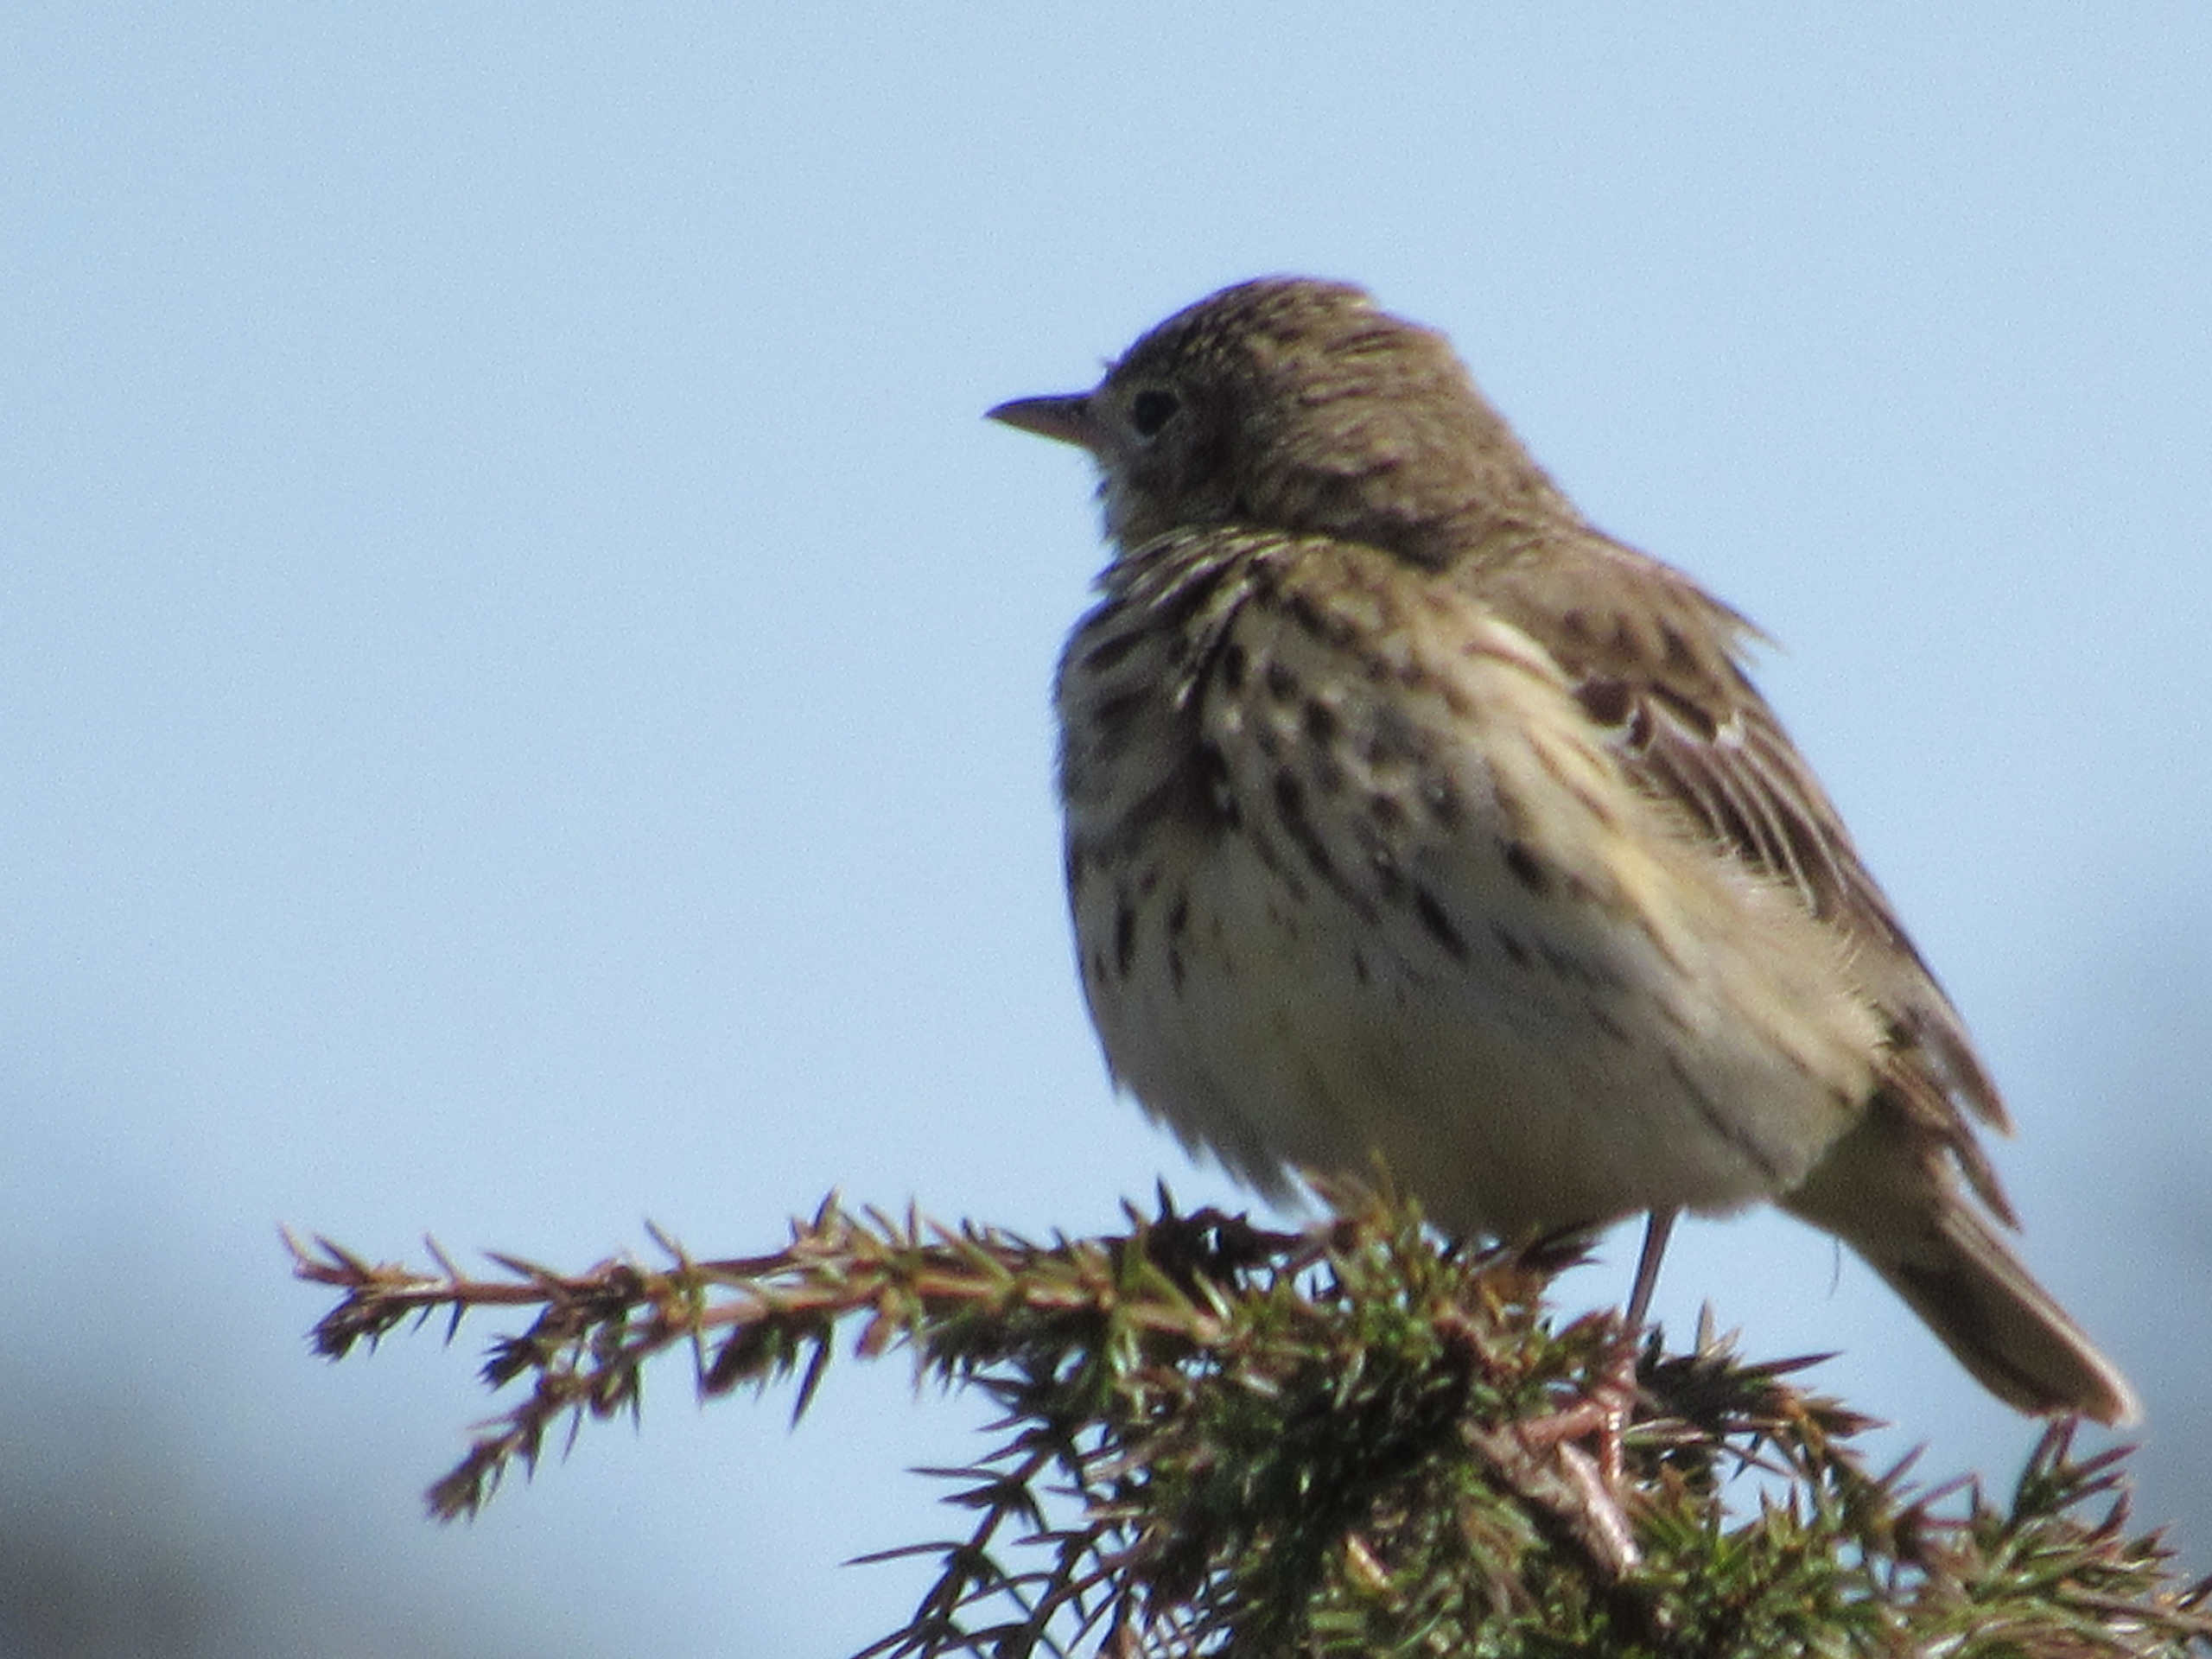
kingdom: Animalia
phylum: Chordata
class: Aves
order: Passeriformes
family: Motacillidae
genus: Anthus
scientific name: Anthus trivialis
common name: Skovpiber
